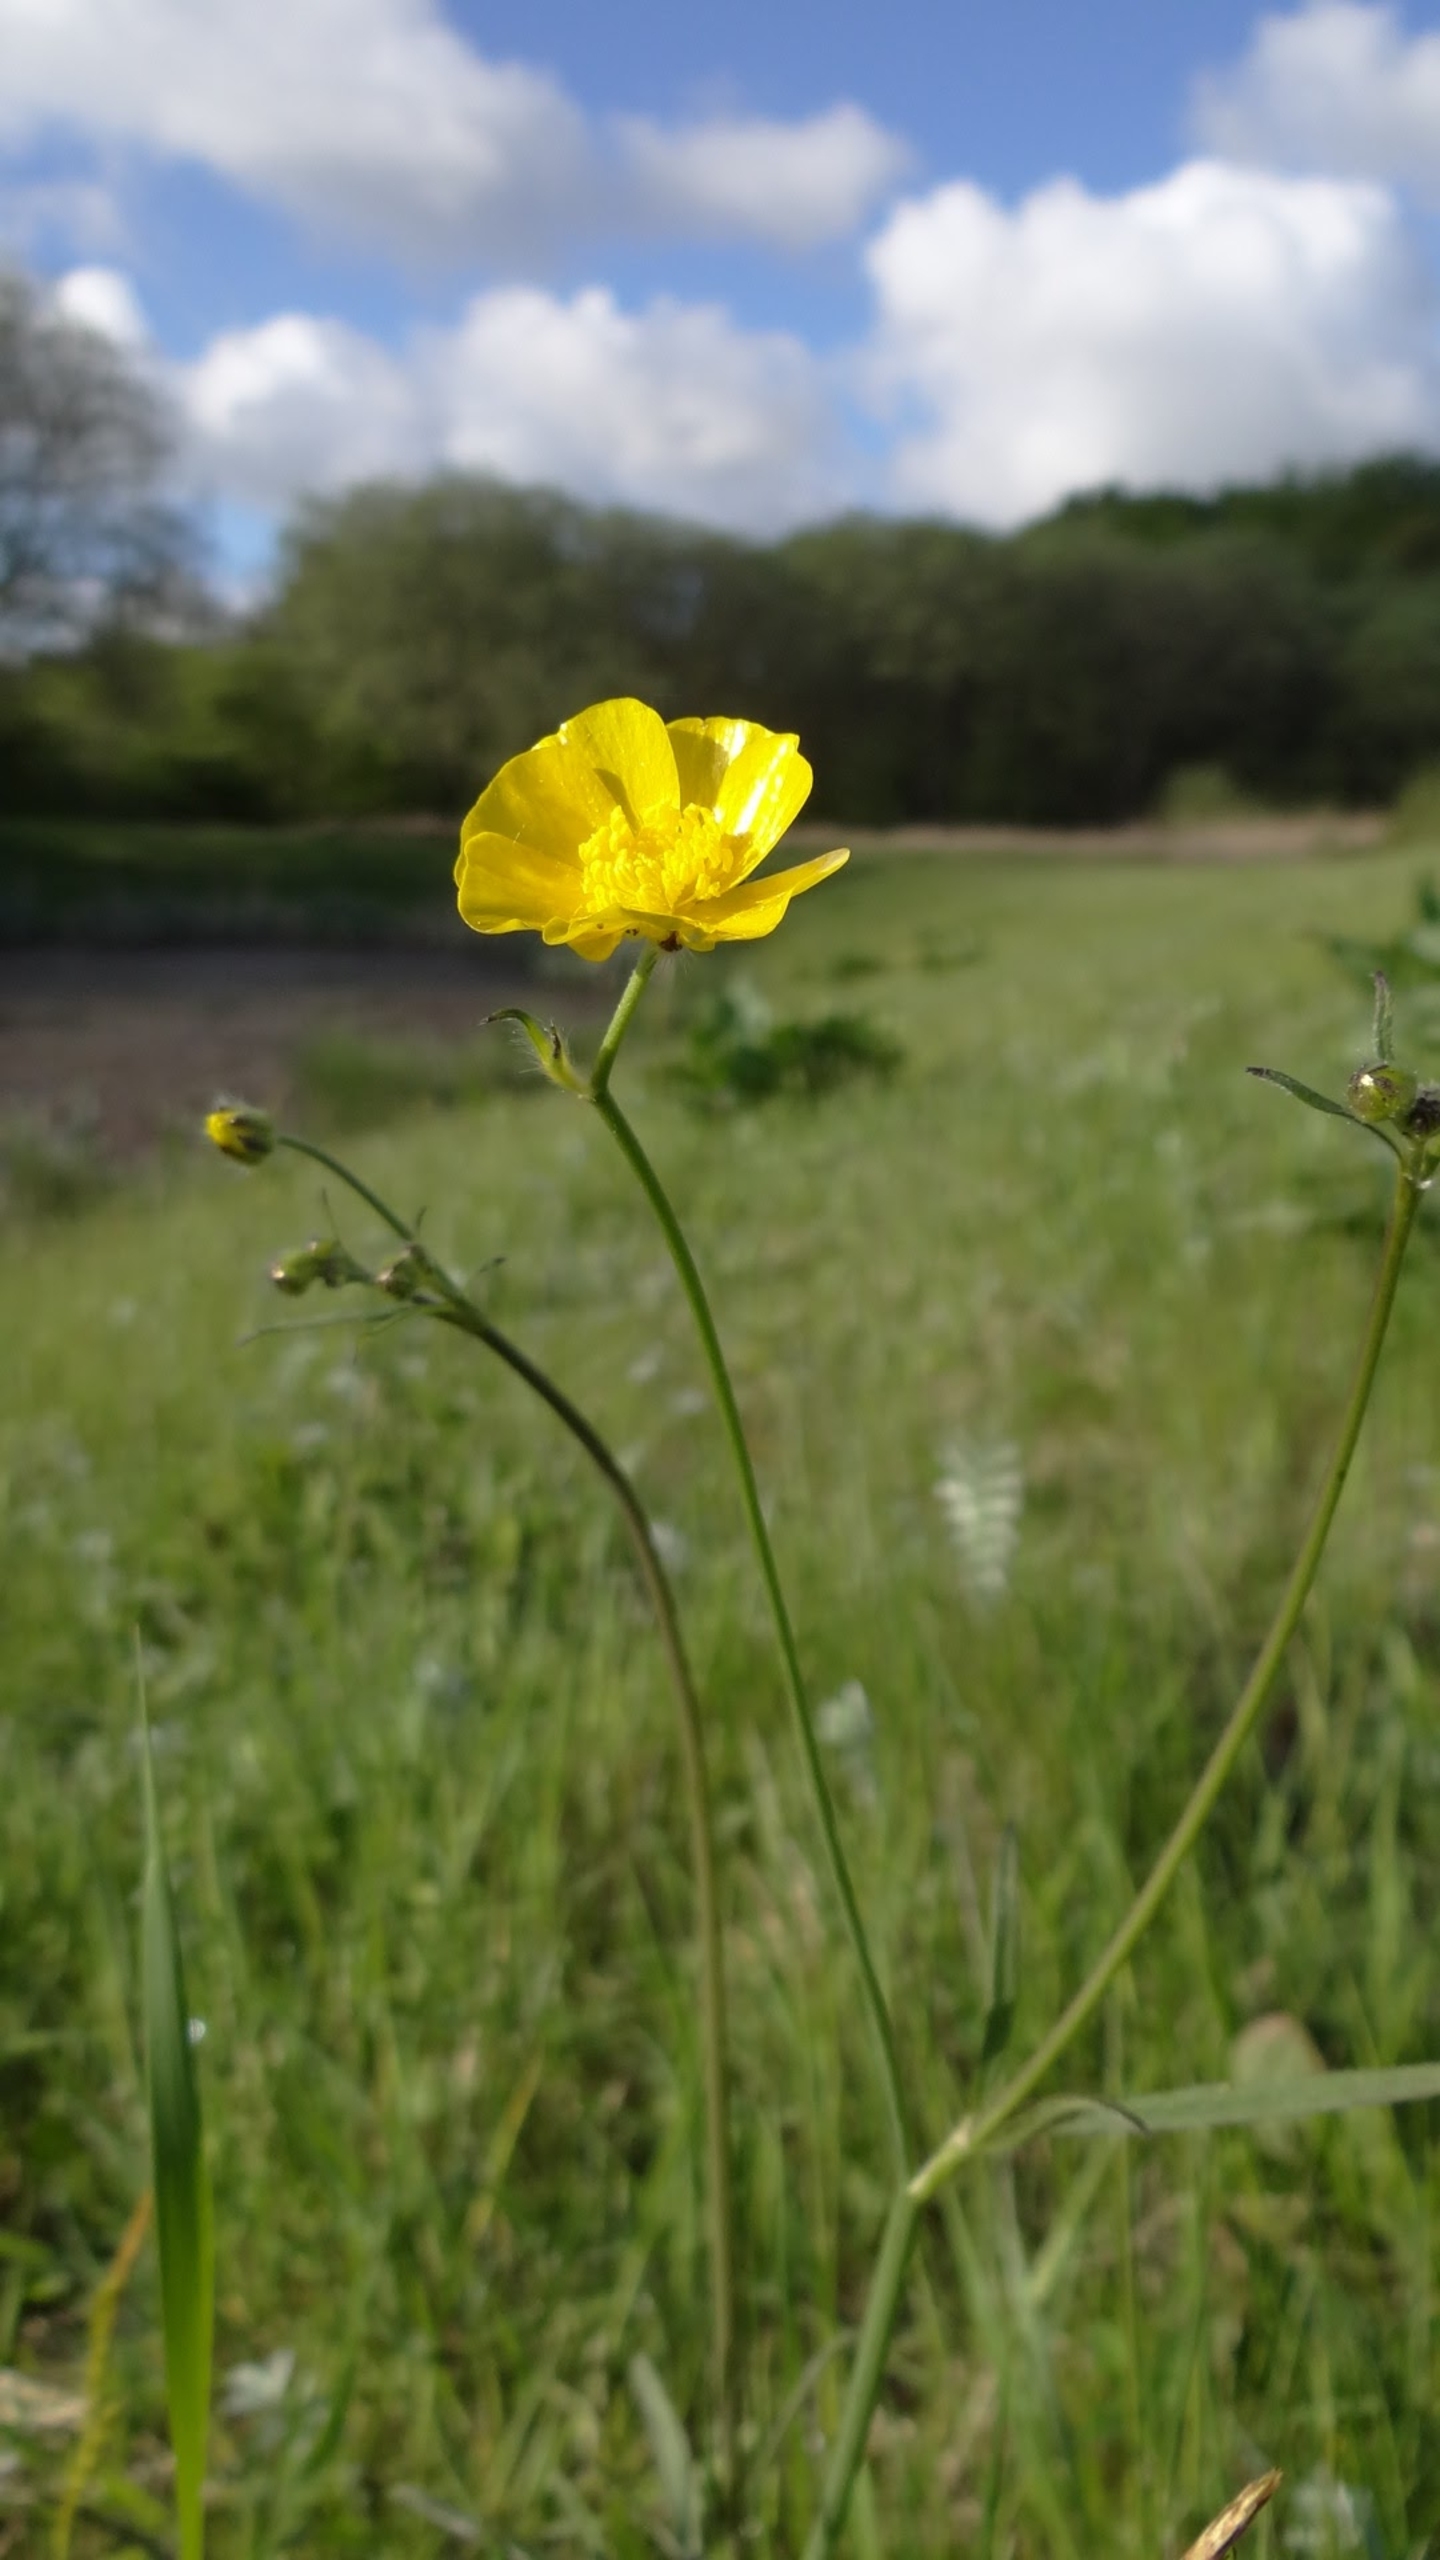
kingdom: Plantae
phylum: Tracheophyta
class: Magnoliopsida
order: Ranunculales
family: Ranunculaceae
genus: Ranunculus
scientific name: Ranunculus acris
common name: Bidende ranunkel
